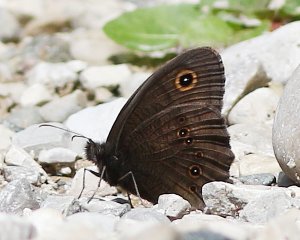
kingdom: Animalia
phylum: Arthropoda
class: Insecta
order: Lepidoptera
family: Nymphalidae
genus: Cercyonis
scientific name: Cercyonis pegala
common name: Common Wood-Nymph
